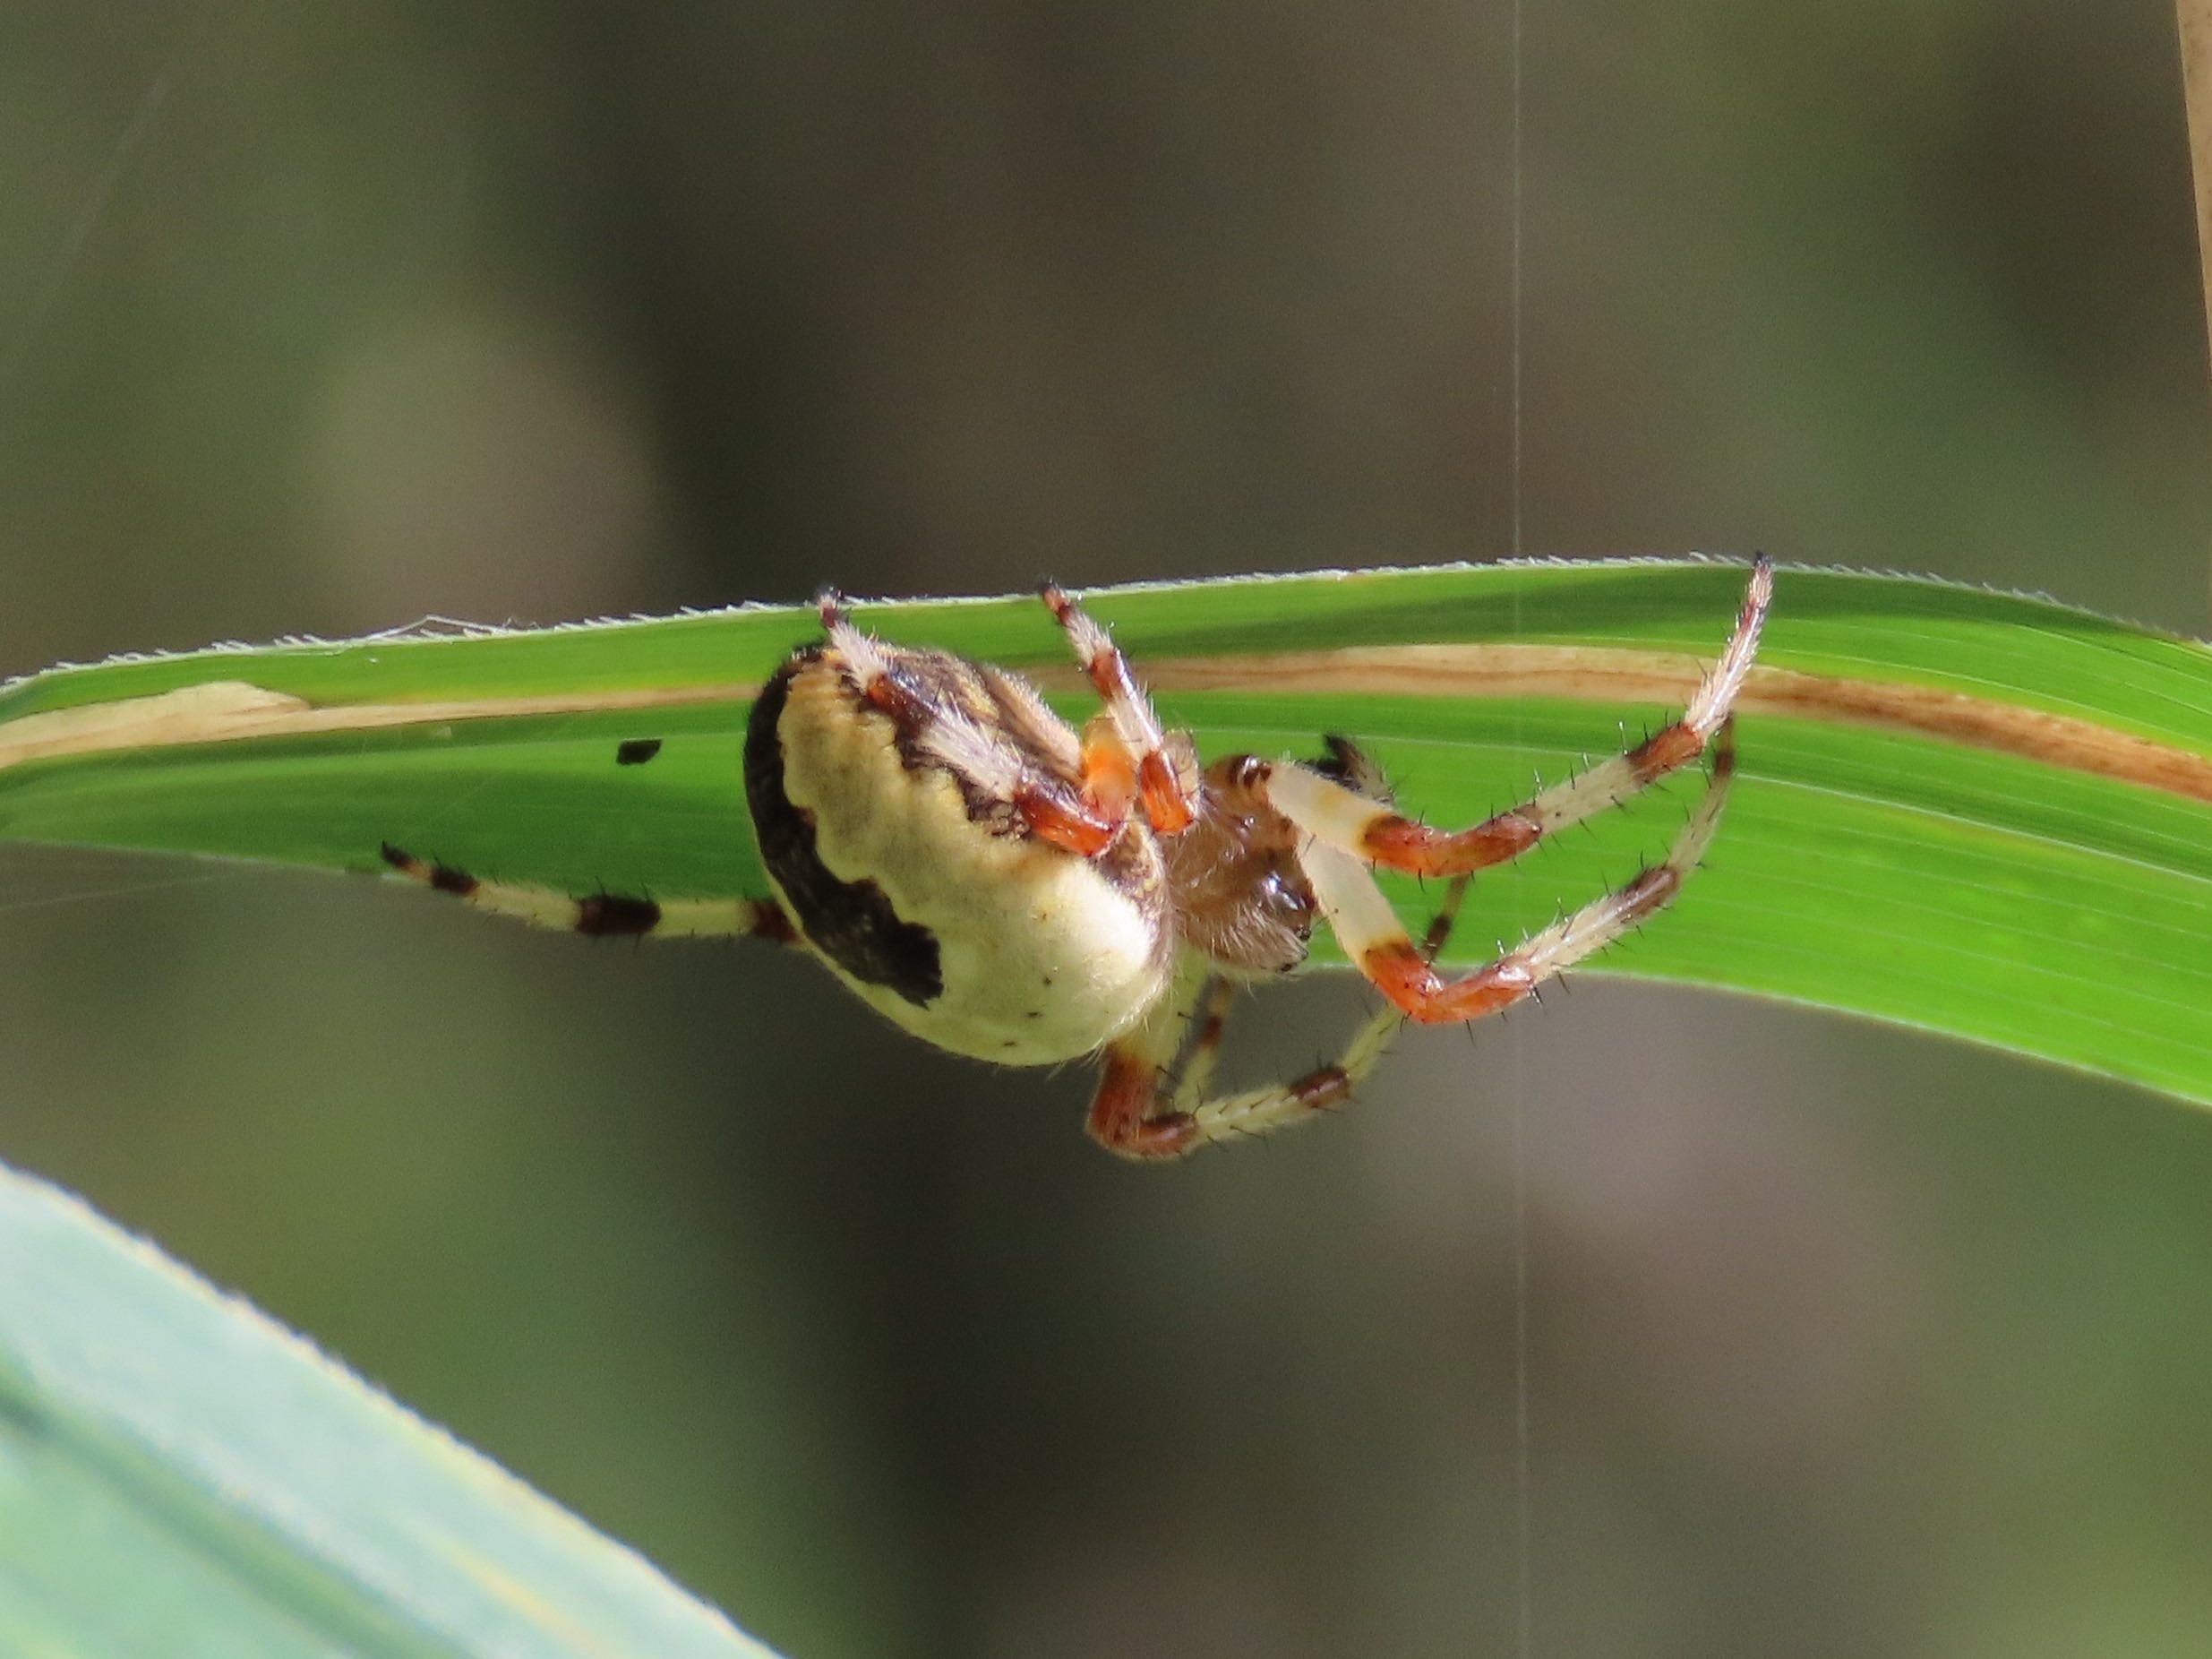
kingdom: Animalia
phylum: Arthropoda
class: Arachnida
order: Araneae
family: Araneidae
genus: Araneus
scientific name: Araneus marmoreus
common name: Marmoreret hjulspinder
